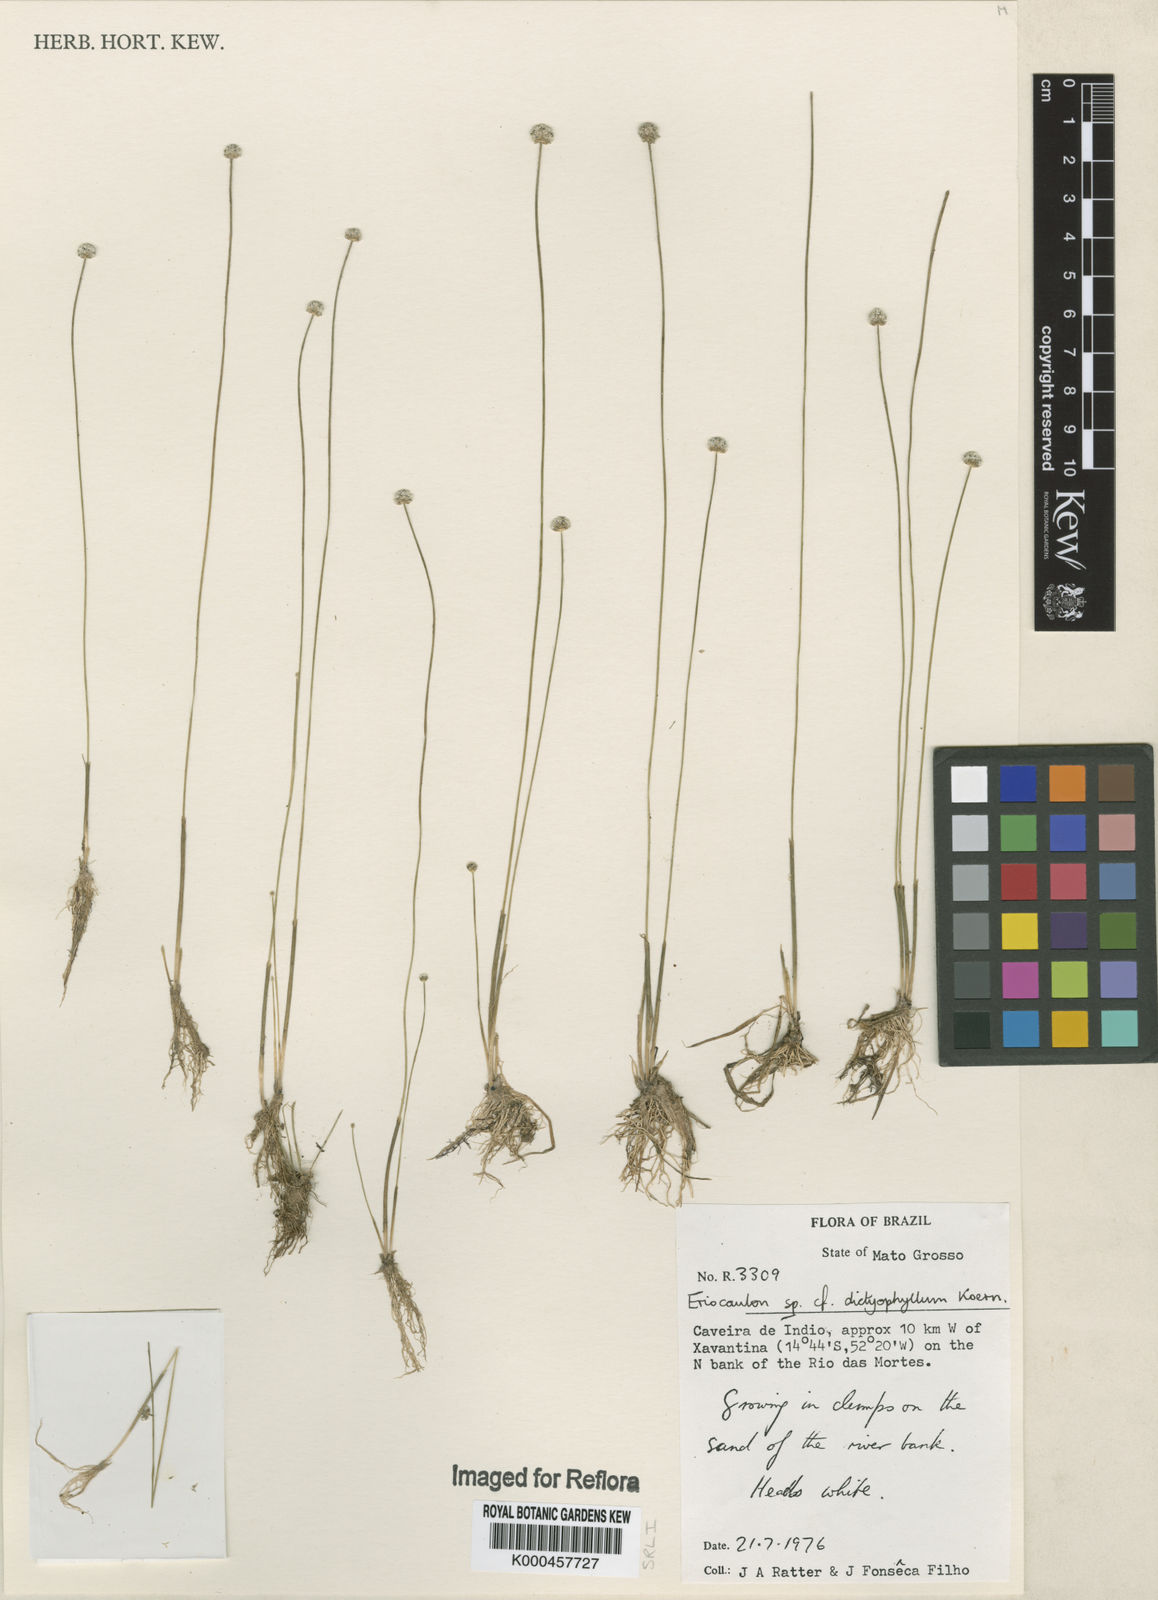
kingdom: Plantae
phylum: Tracheophyta
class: Liliopsida
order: Poales
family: Eriocaulaceae
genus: Eriocaulon
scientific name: Eriocaulon
